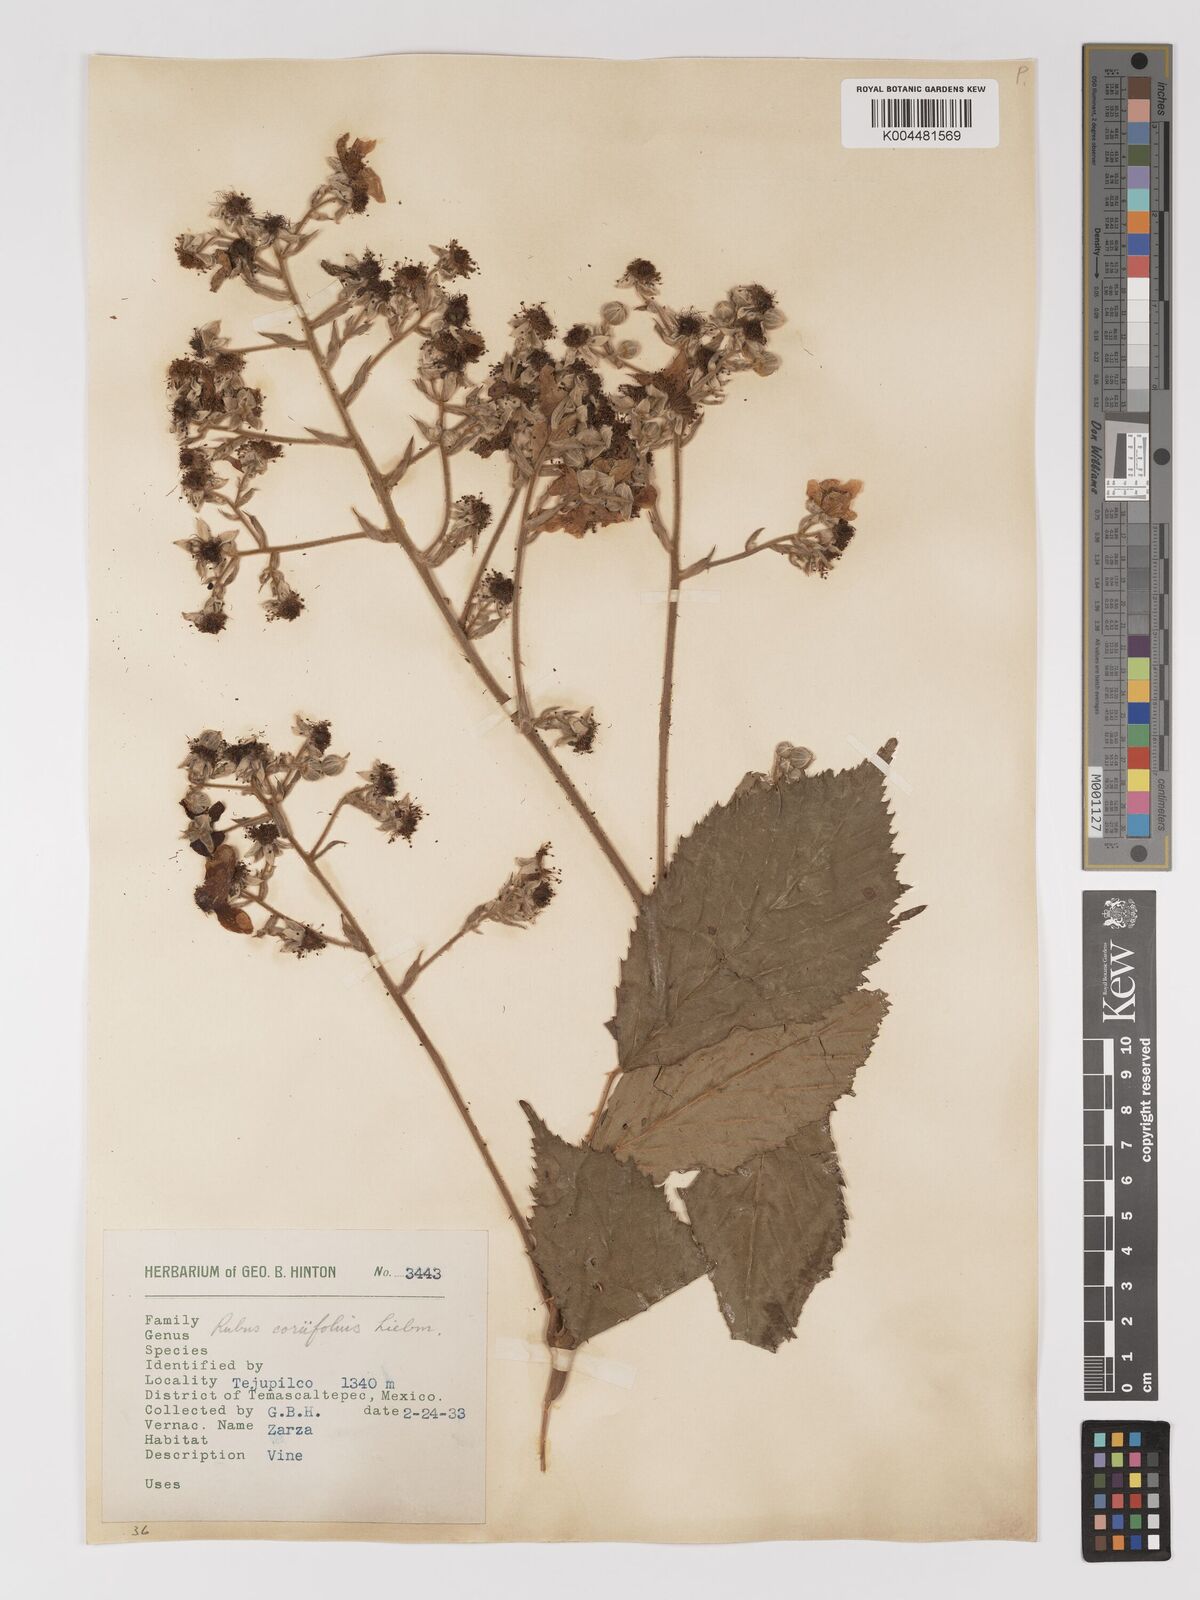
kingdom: Plantae
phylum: Tracheophyta
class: Magnoliopsida
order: Rosales
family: Rosaceae
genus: Rubus
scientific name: Rubus coriifolius
